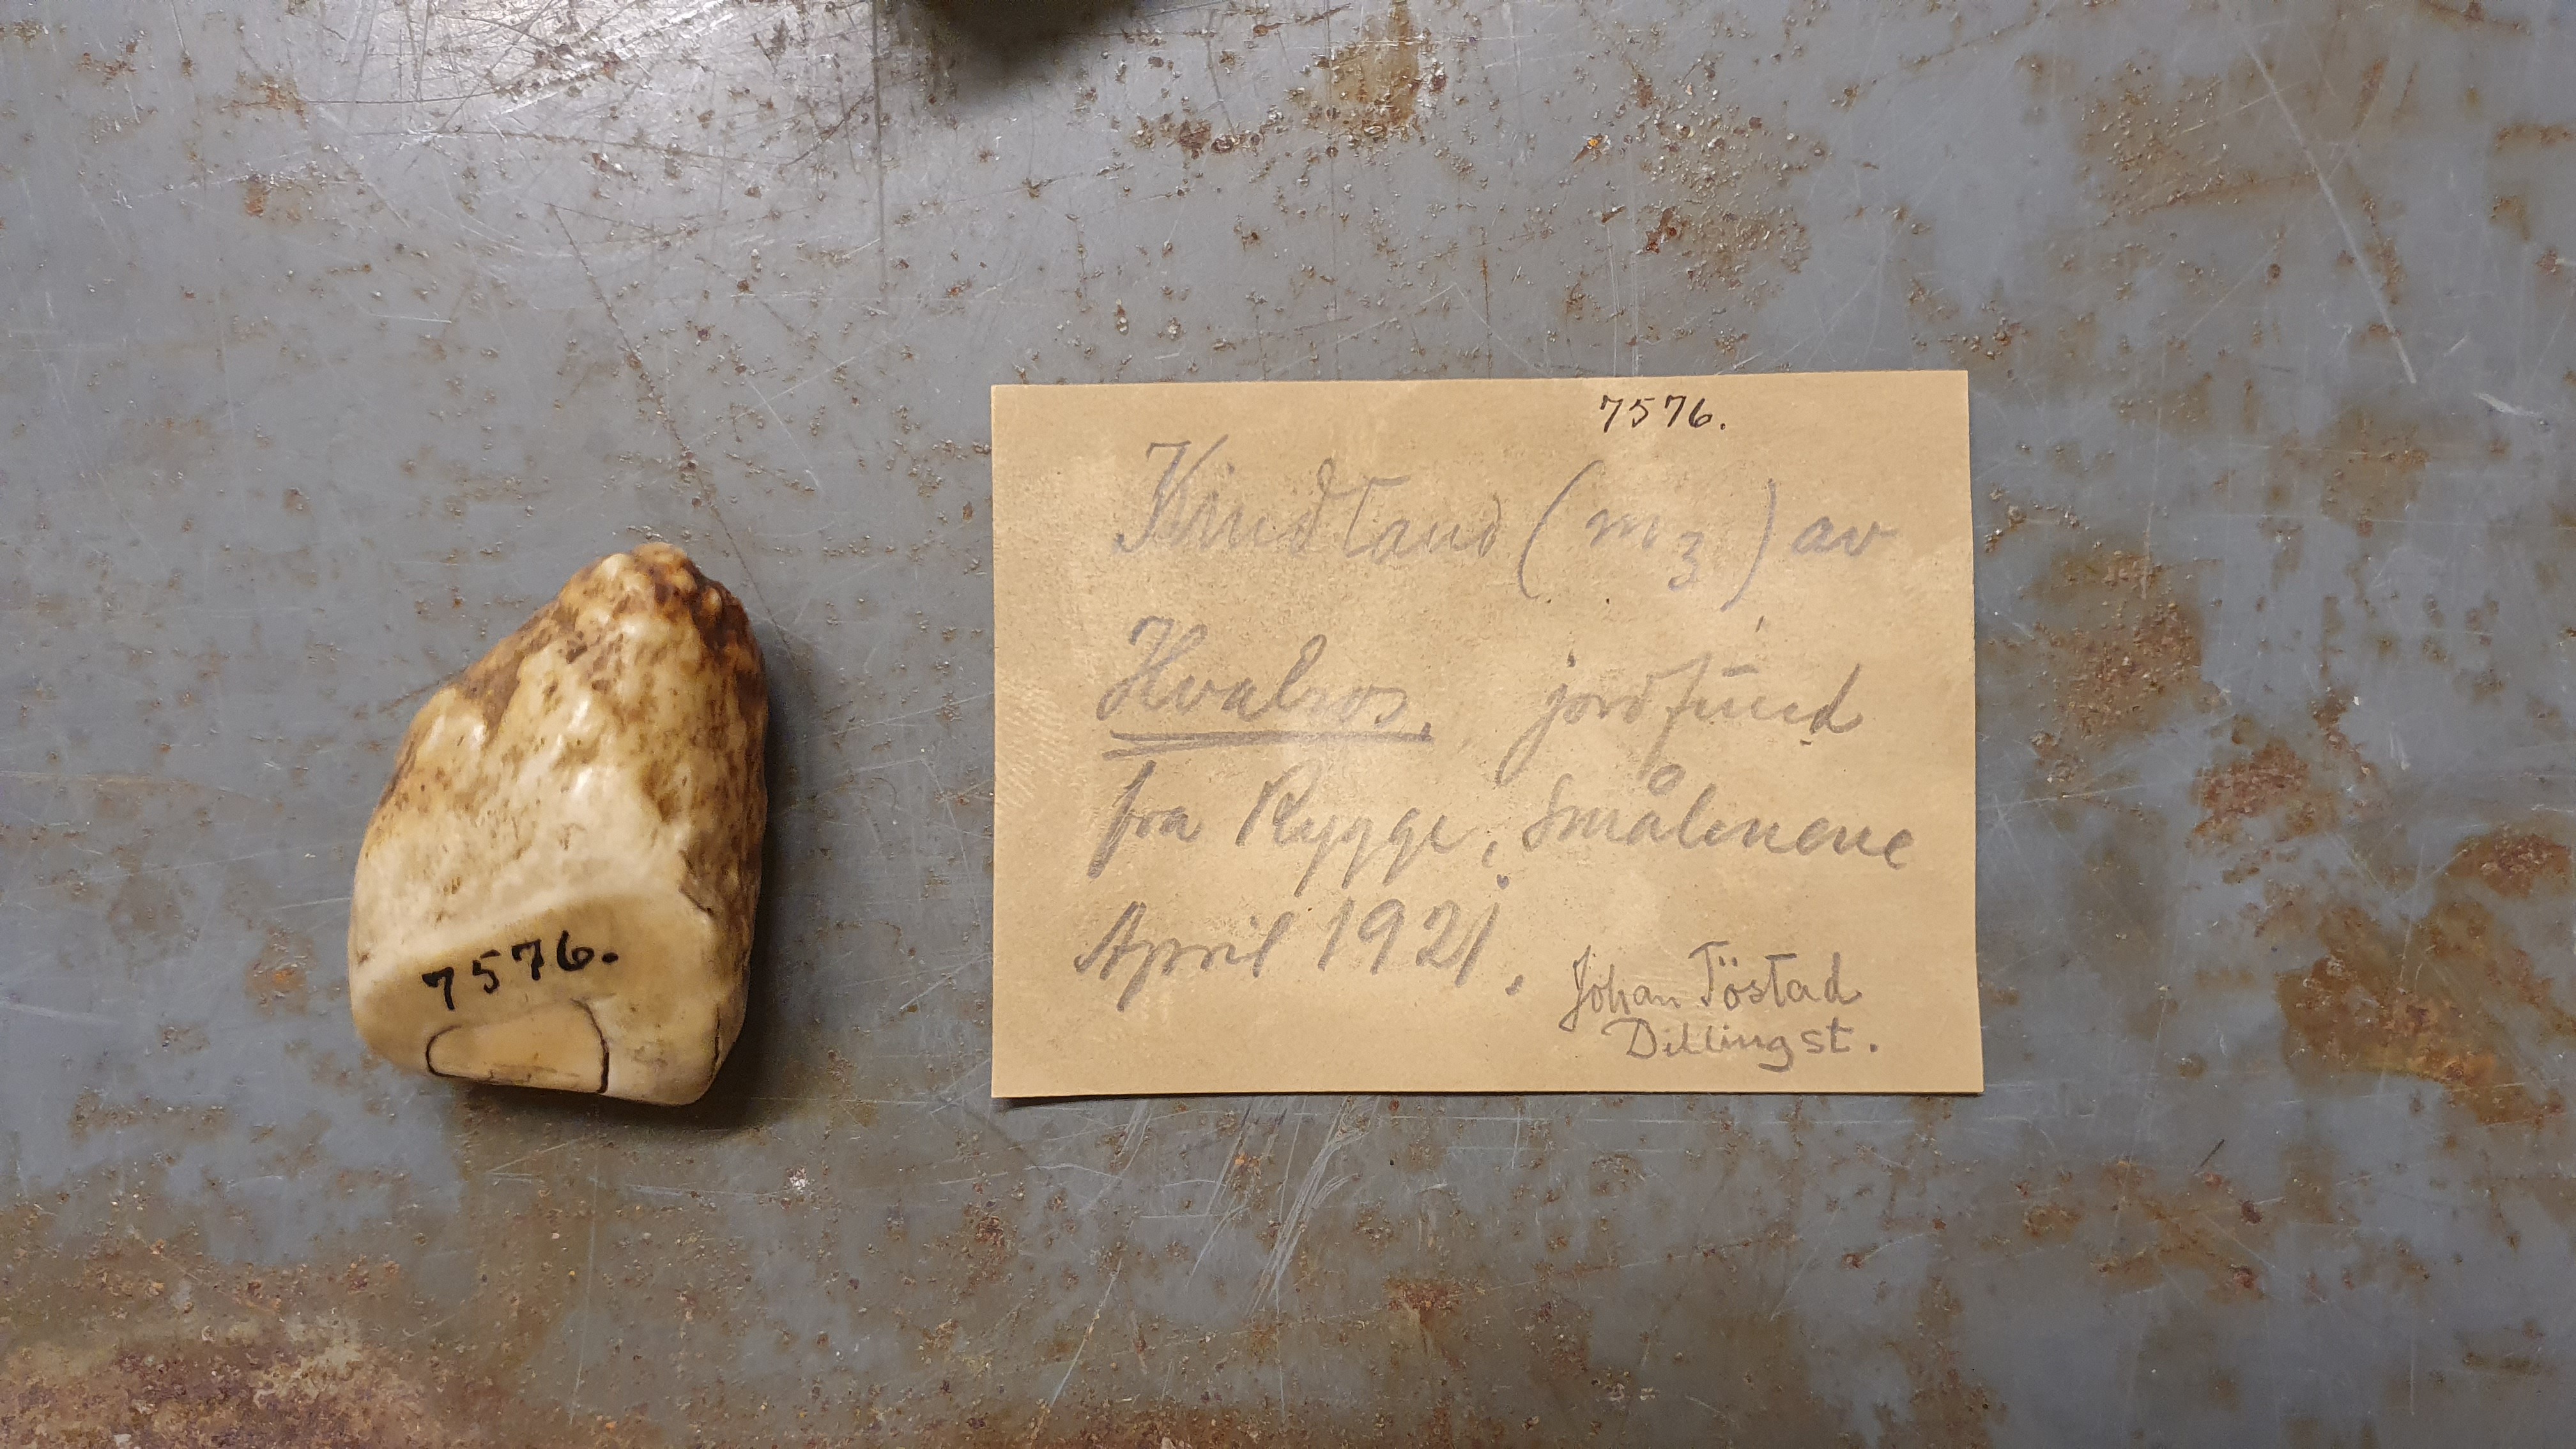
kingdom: Animalia
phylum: Chordata
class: Mammalia
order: Carnivora
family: Odobenidae
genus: Odobenus
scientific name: Odobenus rosmarus
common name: Walrus
